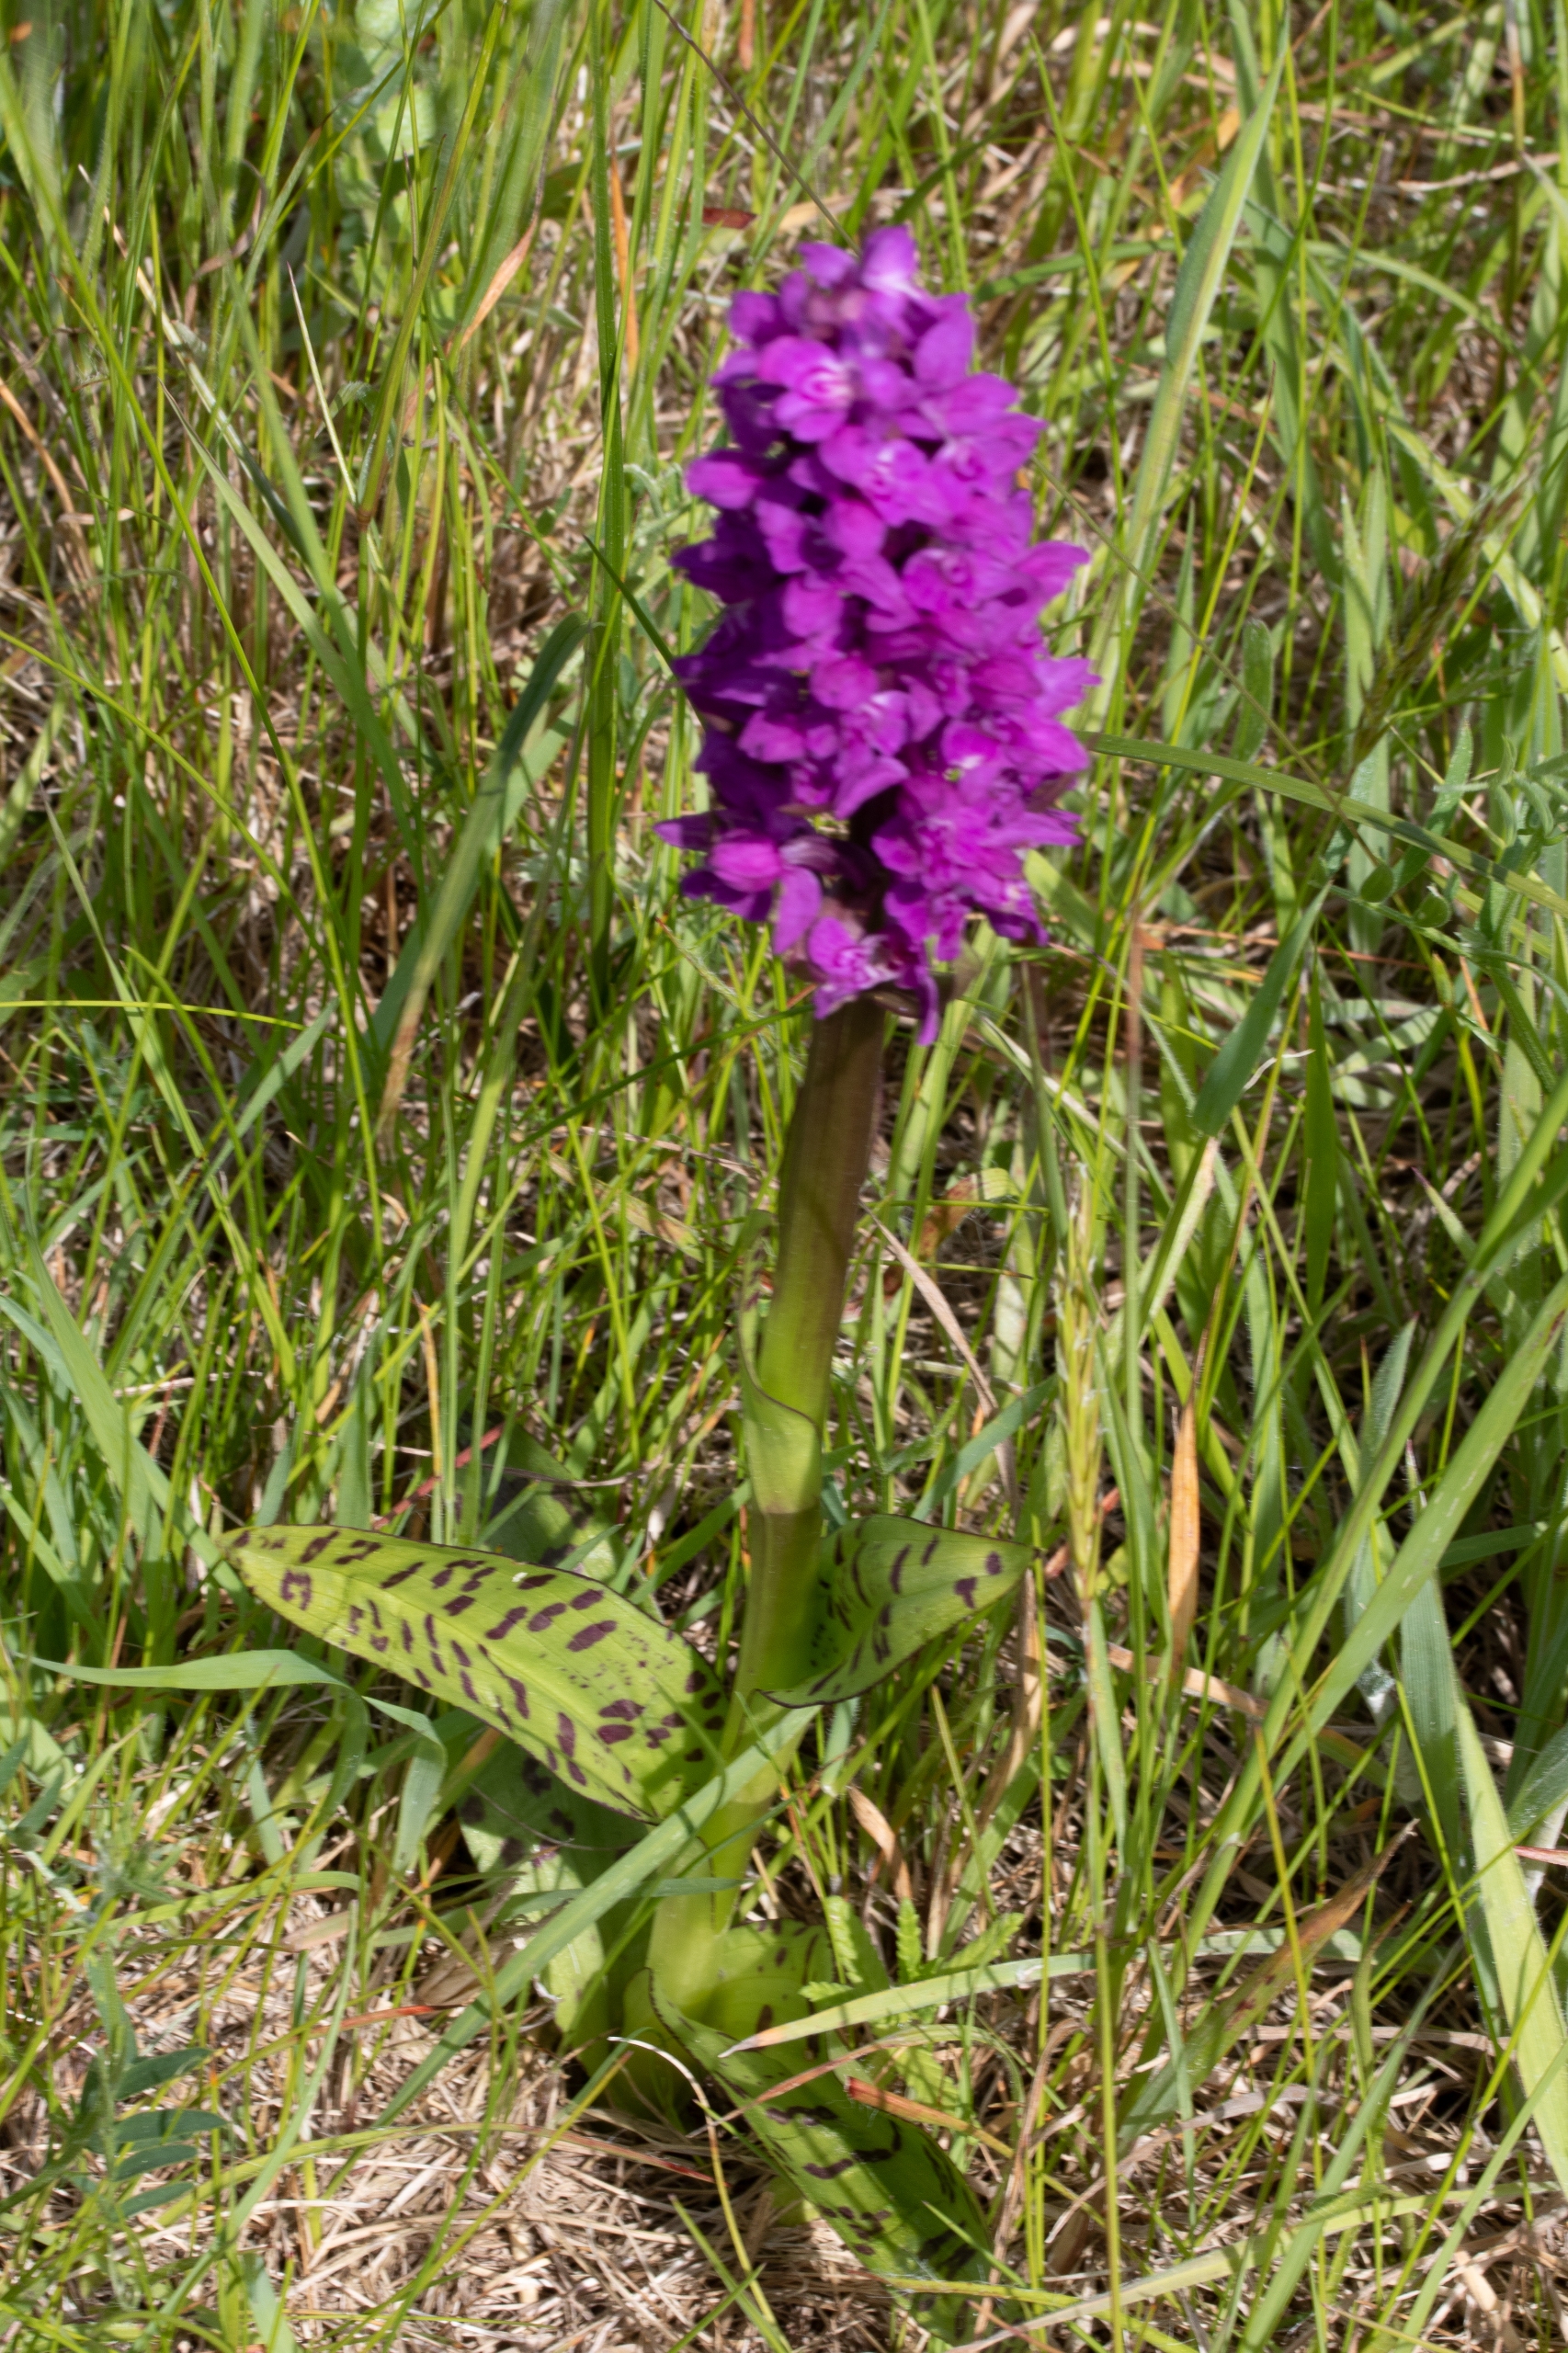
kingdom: Plantae
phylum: Tracheophyta
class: Liliopsida
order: Asparagales
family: Orchidaceae
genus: Dactylorhiza
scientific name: Dactylorhiza majalis
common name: Maj-gøgeurt
